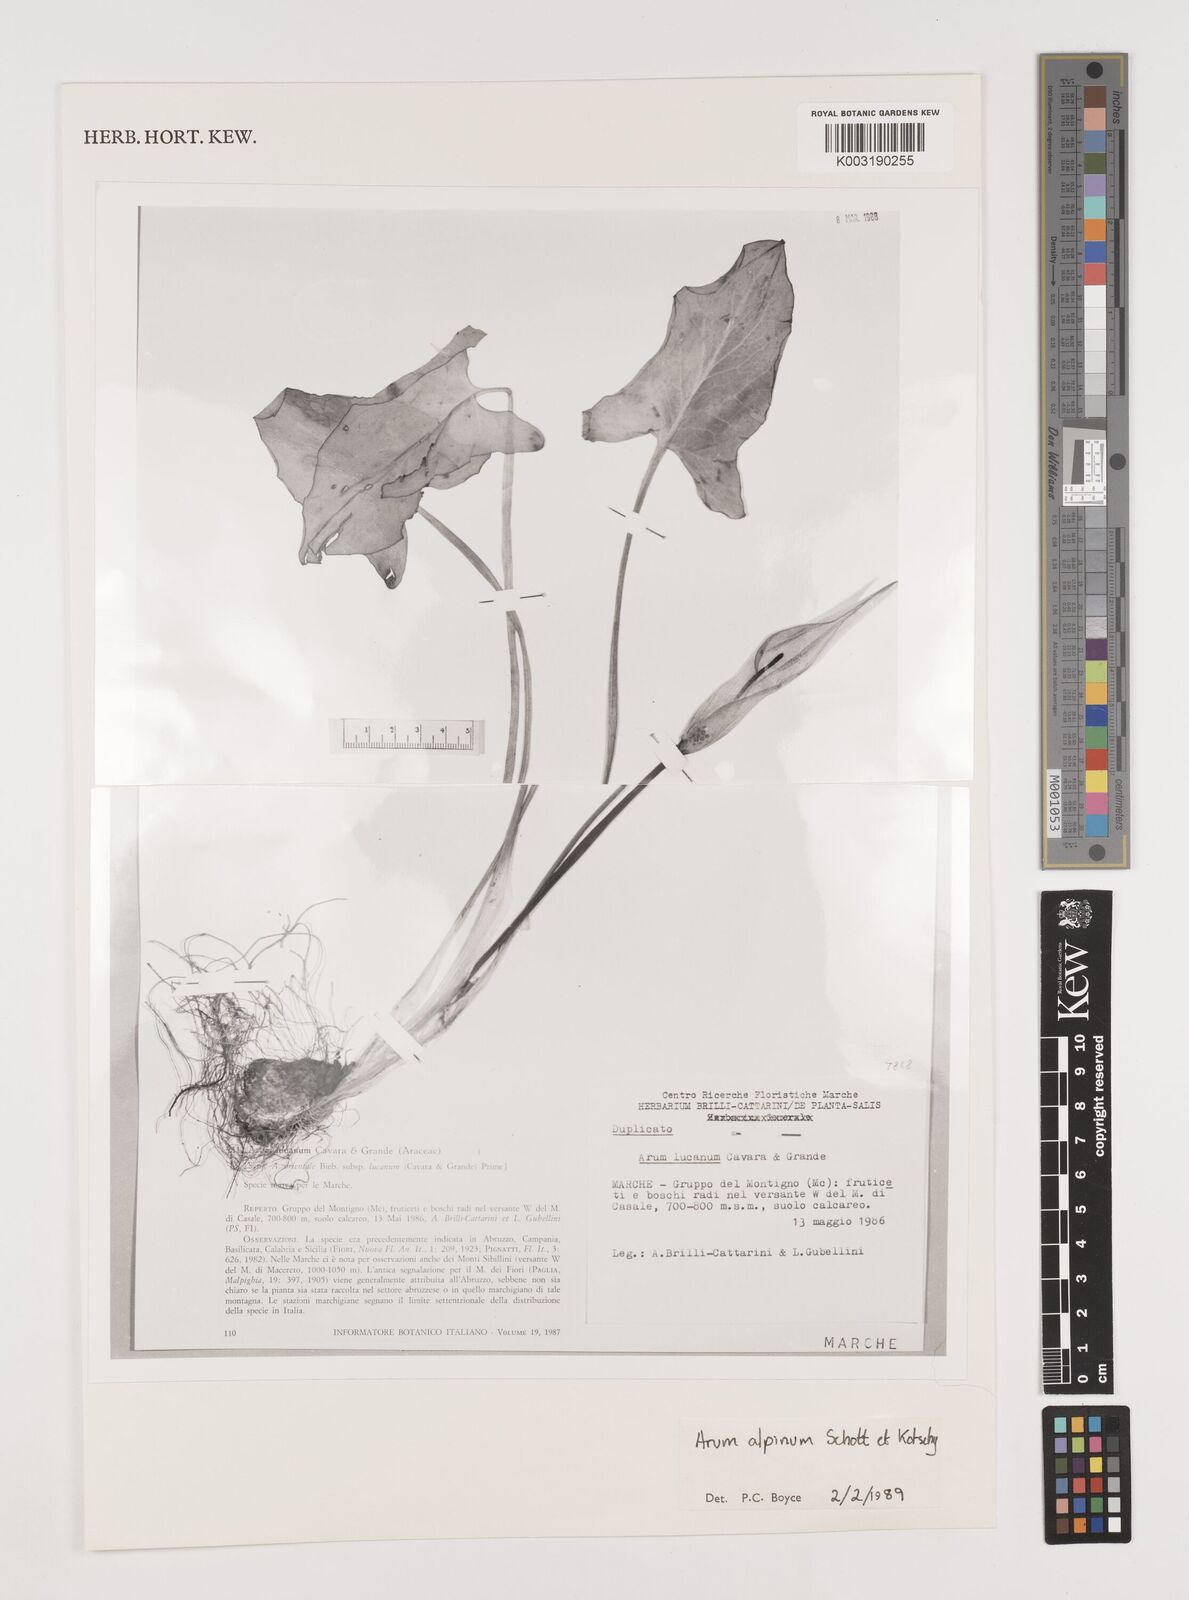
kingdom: Plantae
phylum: Tracheophyta
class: Liliopsida
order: Alismatales
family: Araceae
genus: Arum
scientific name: Arum cylindraceum
